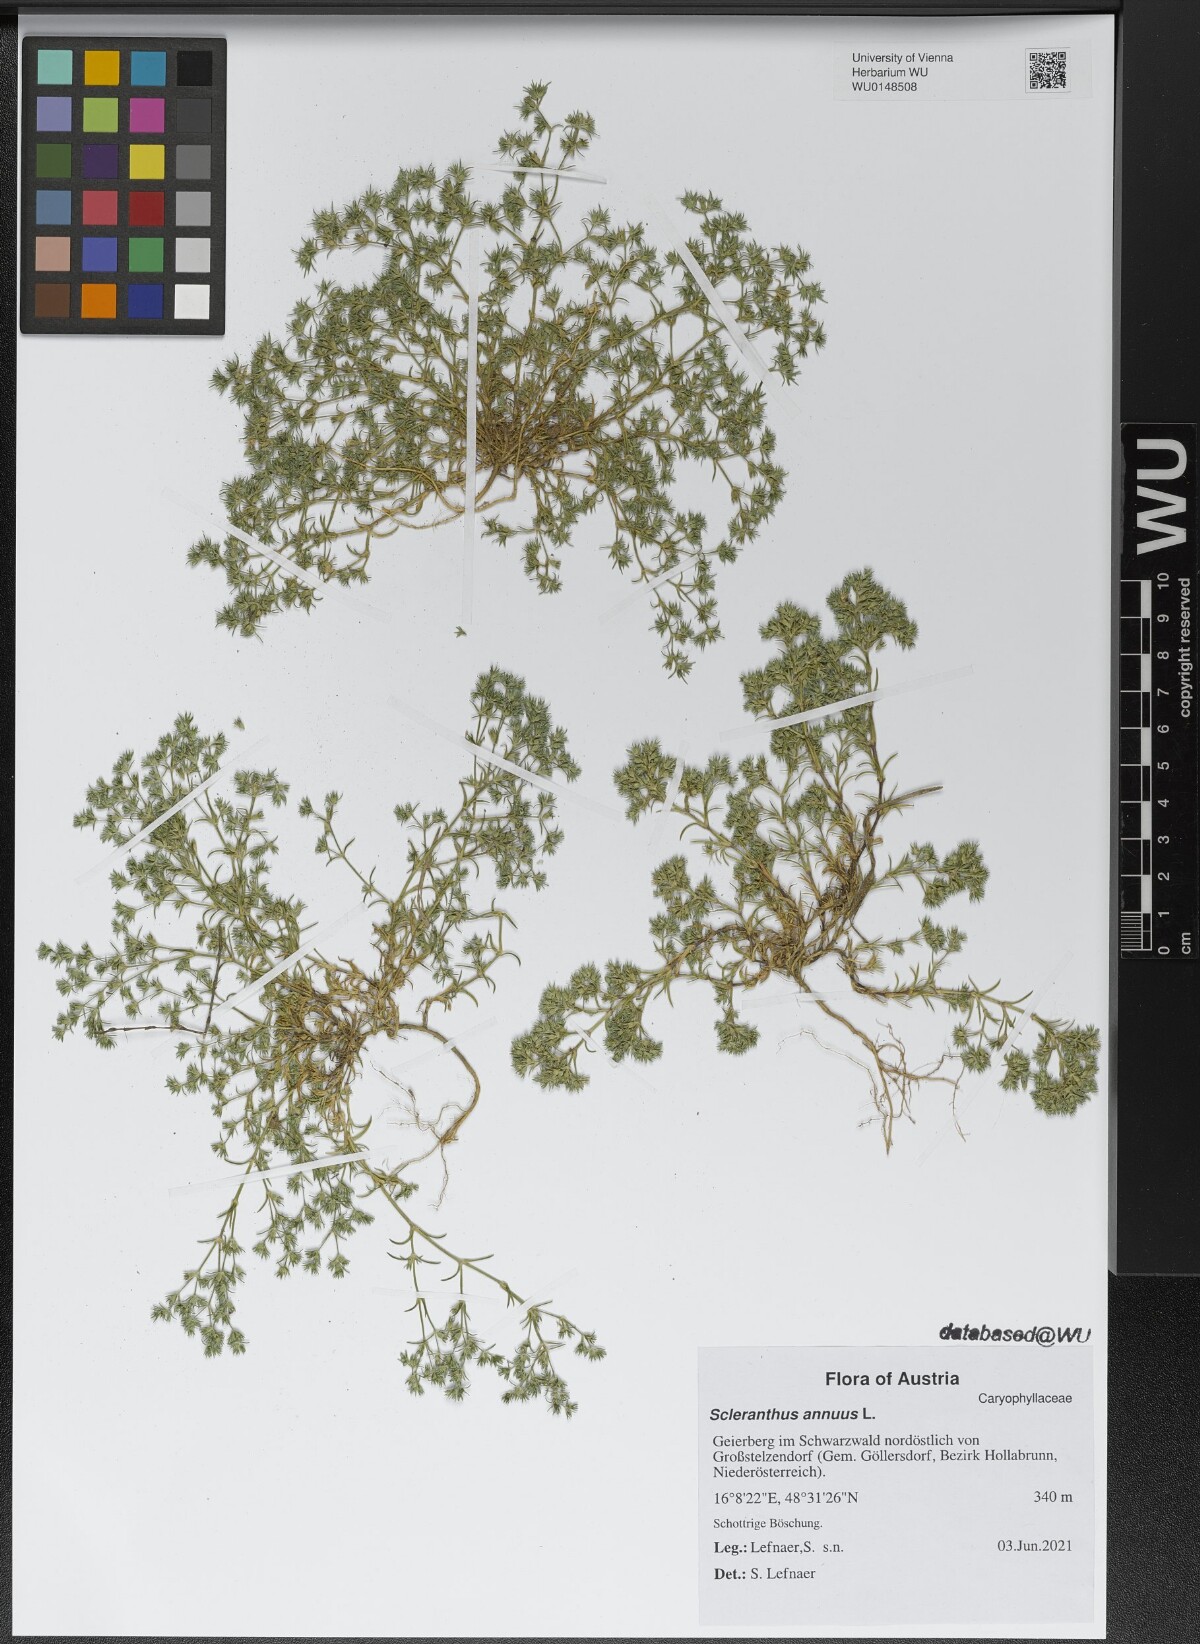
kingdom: Plantae
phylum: Tracheophyta
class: Magnoliopsida
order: Caryophyllales
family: Caryophyllaceae
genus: Scleranthus
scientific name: Scleranthus annuus
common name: Annual knawel
